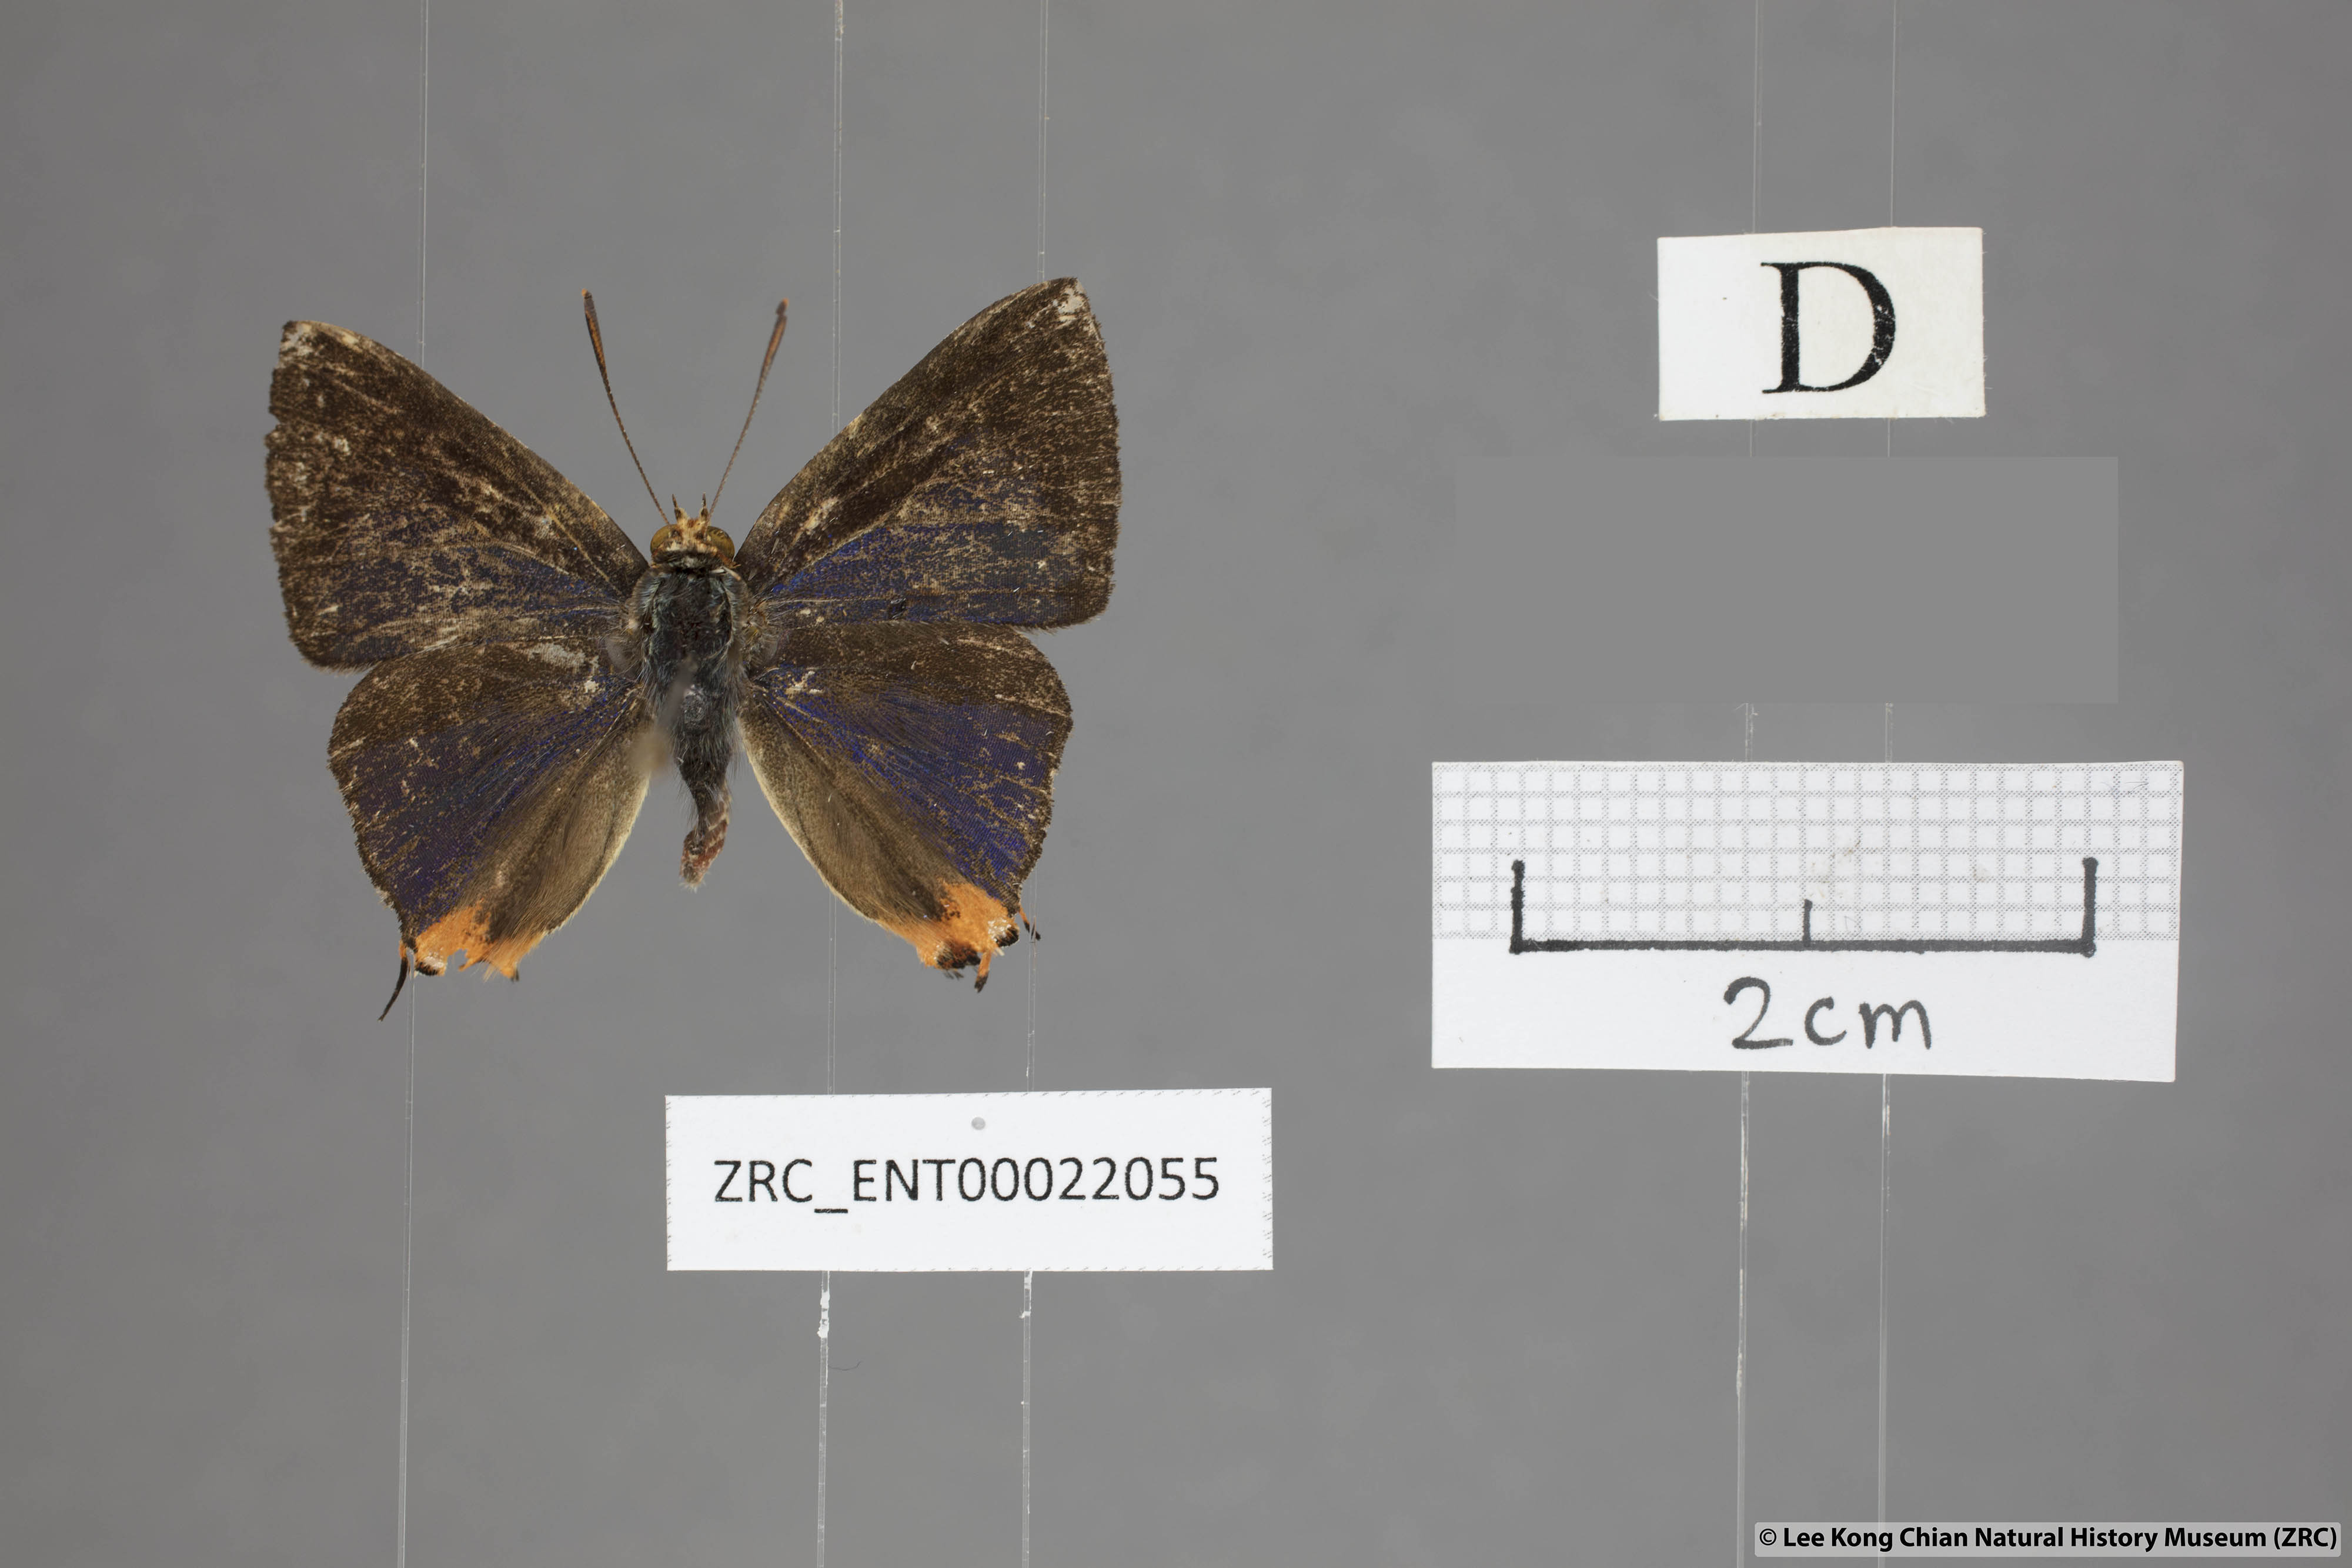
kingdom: Animalia
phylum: Arthropoda
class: Insecta
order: Lepidoptera
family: Lycaenidae
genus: Spindasis
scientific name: Spindasis kutu
